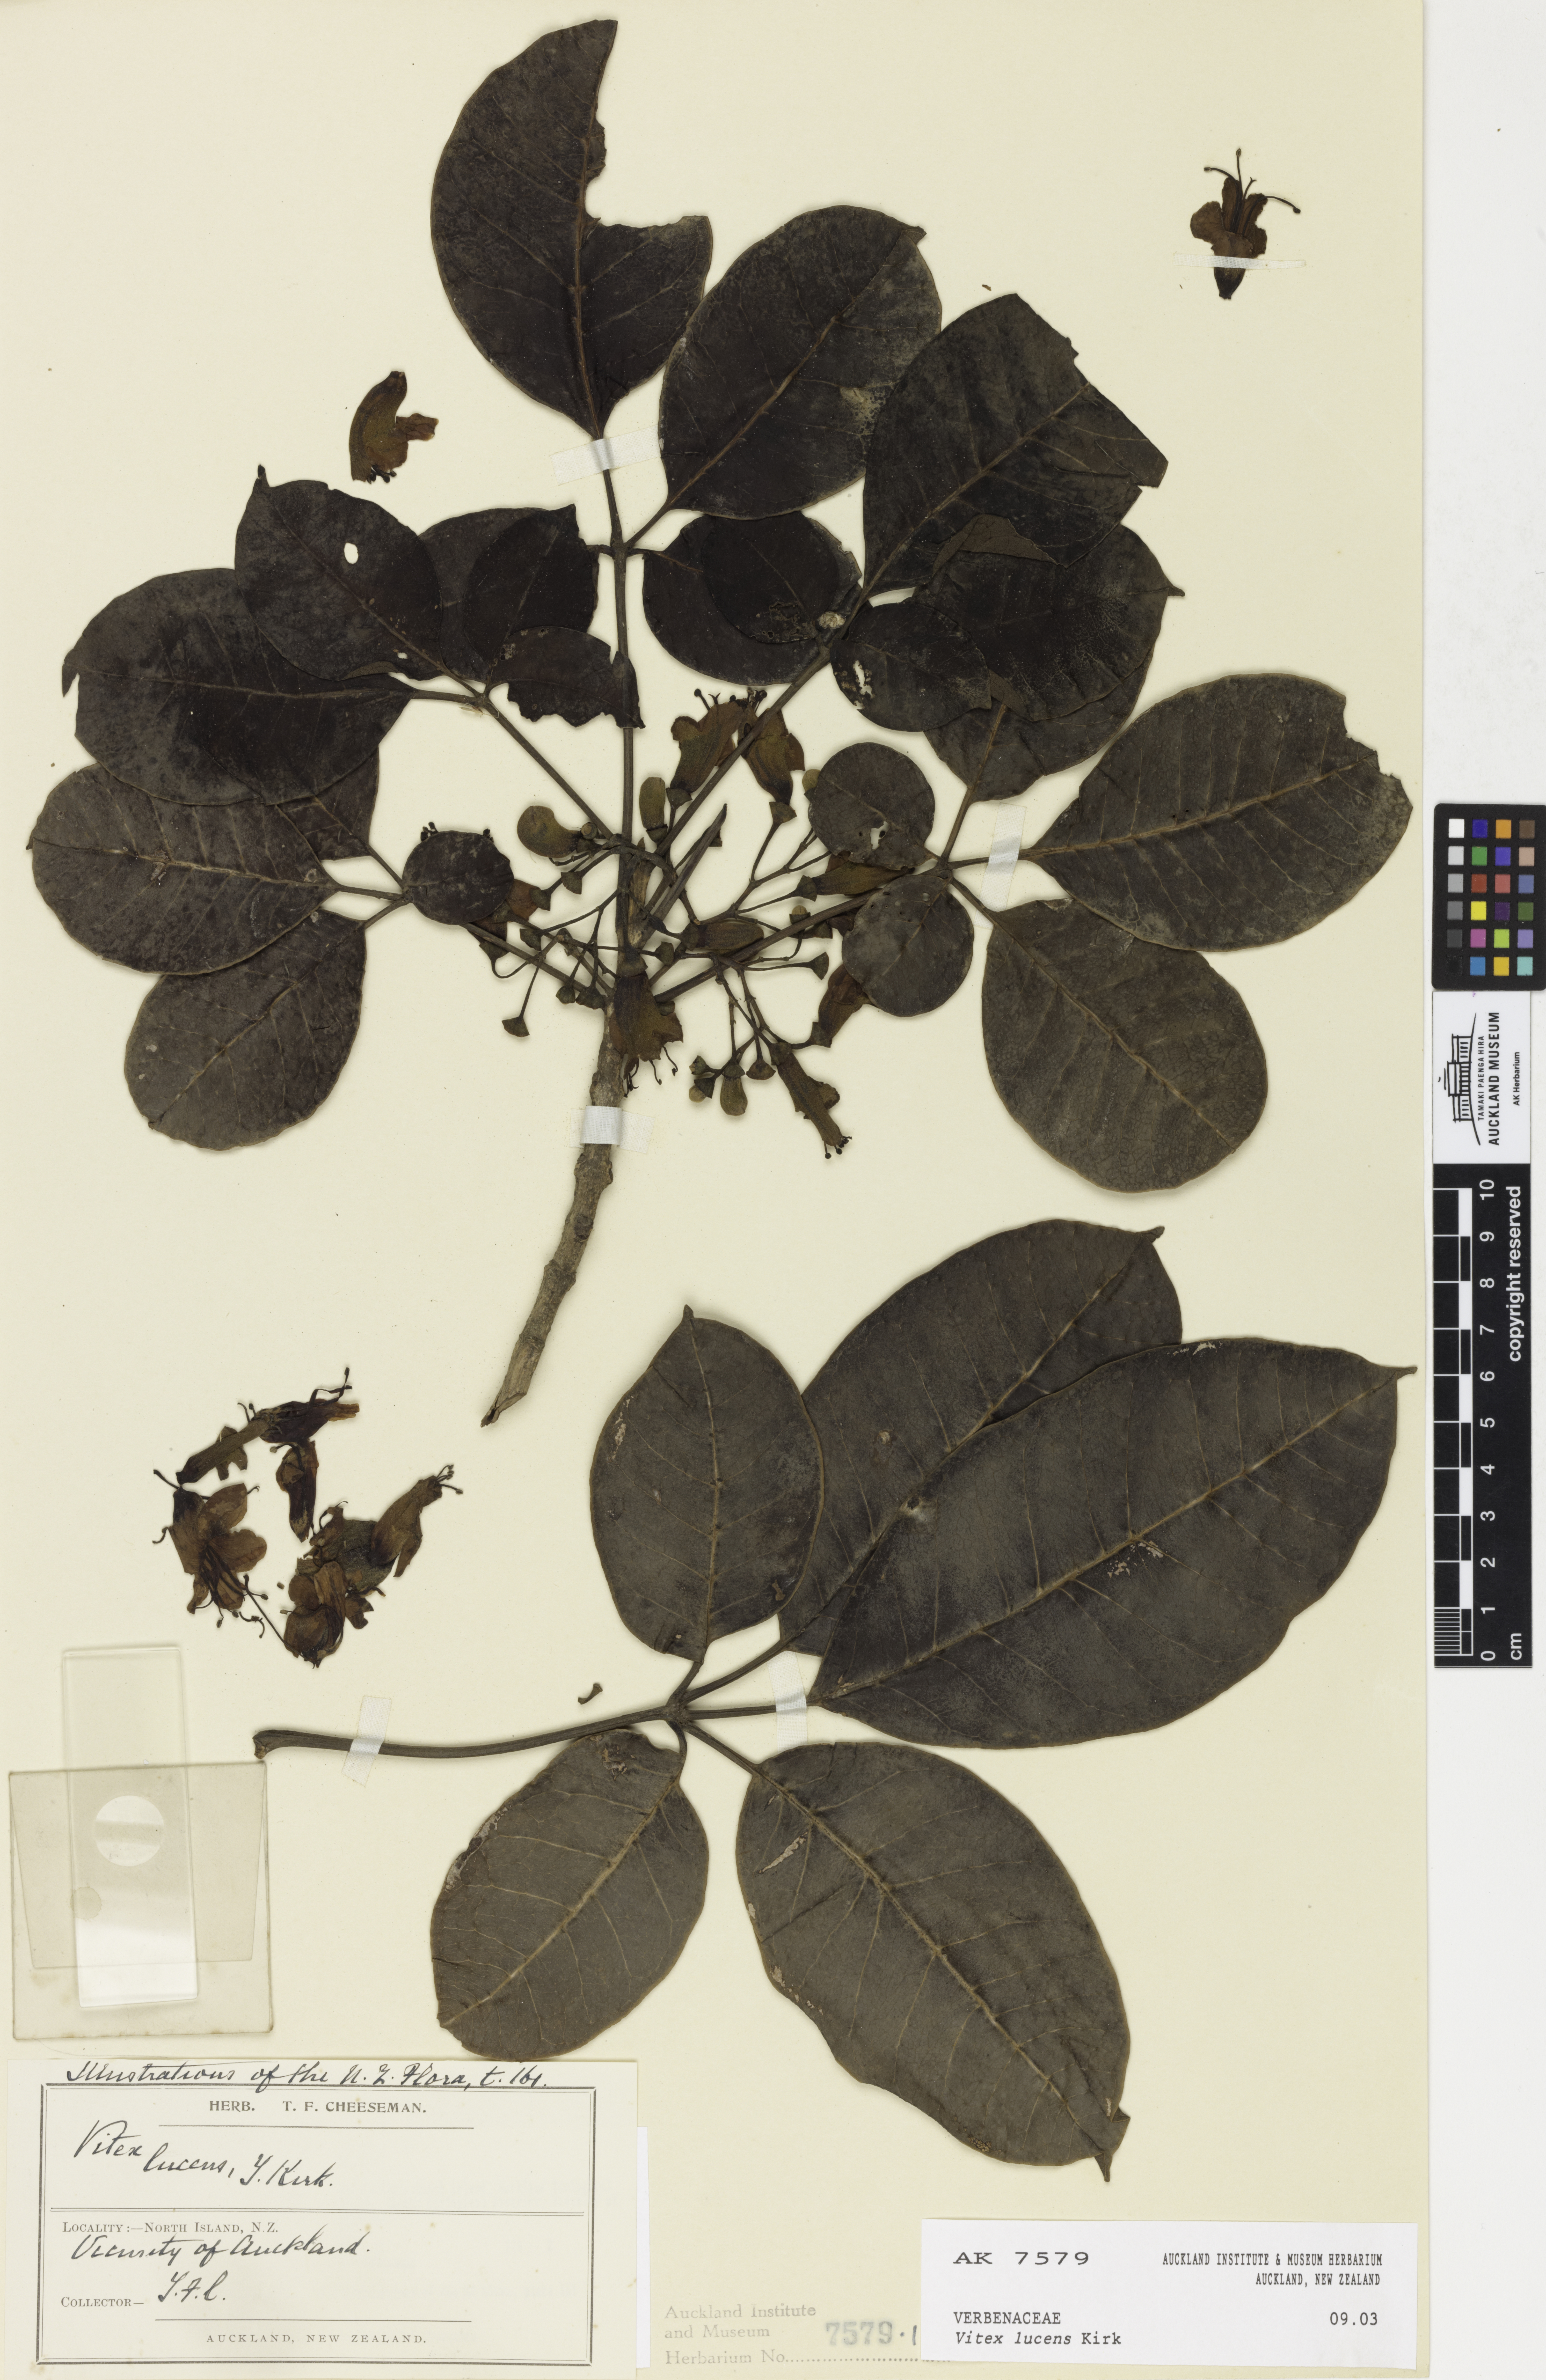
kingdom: Plantae
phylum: Tracheophyta
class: Magnoliopsida
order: Lamiales
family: Lamiaceae
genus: Vitex
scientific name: Vitex lucens
